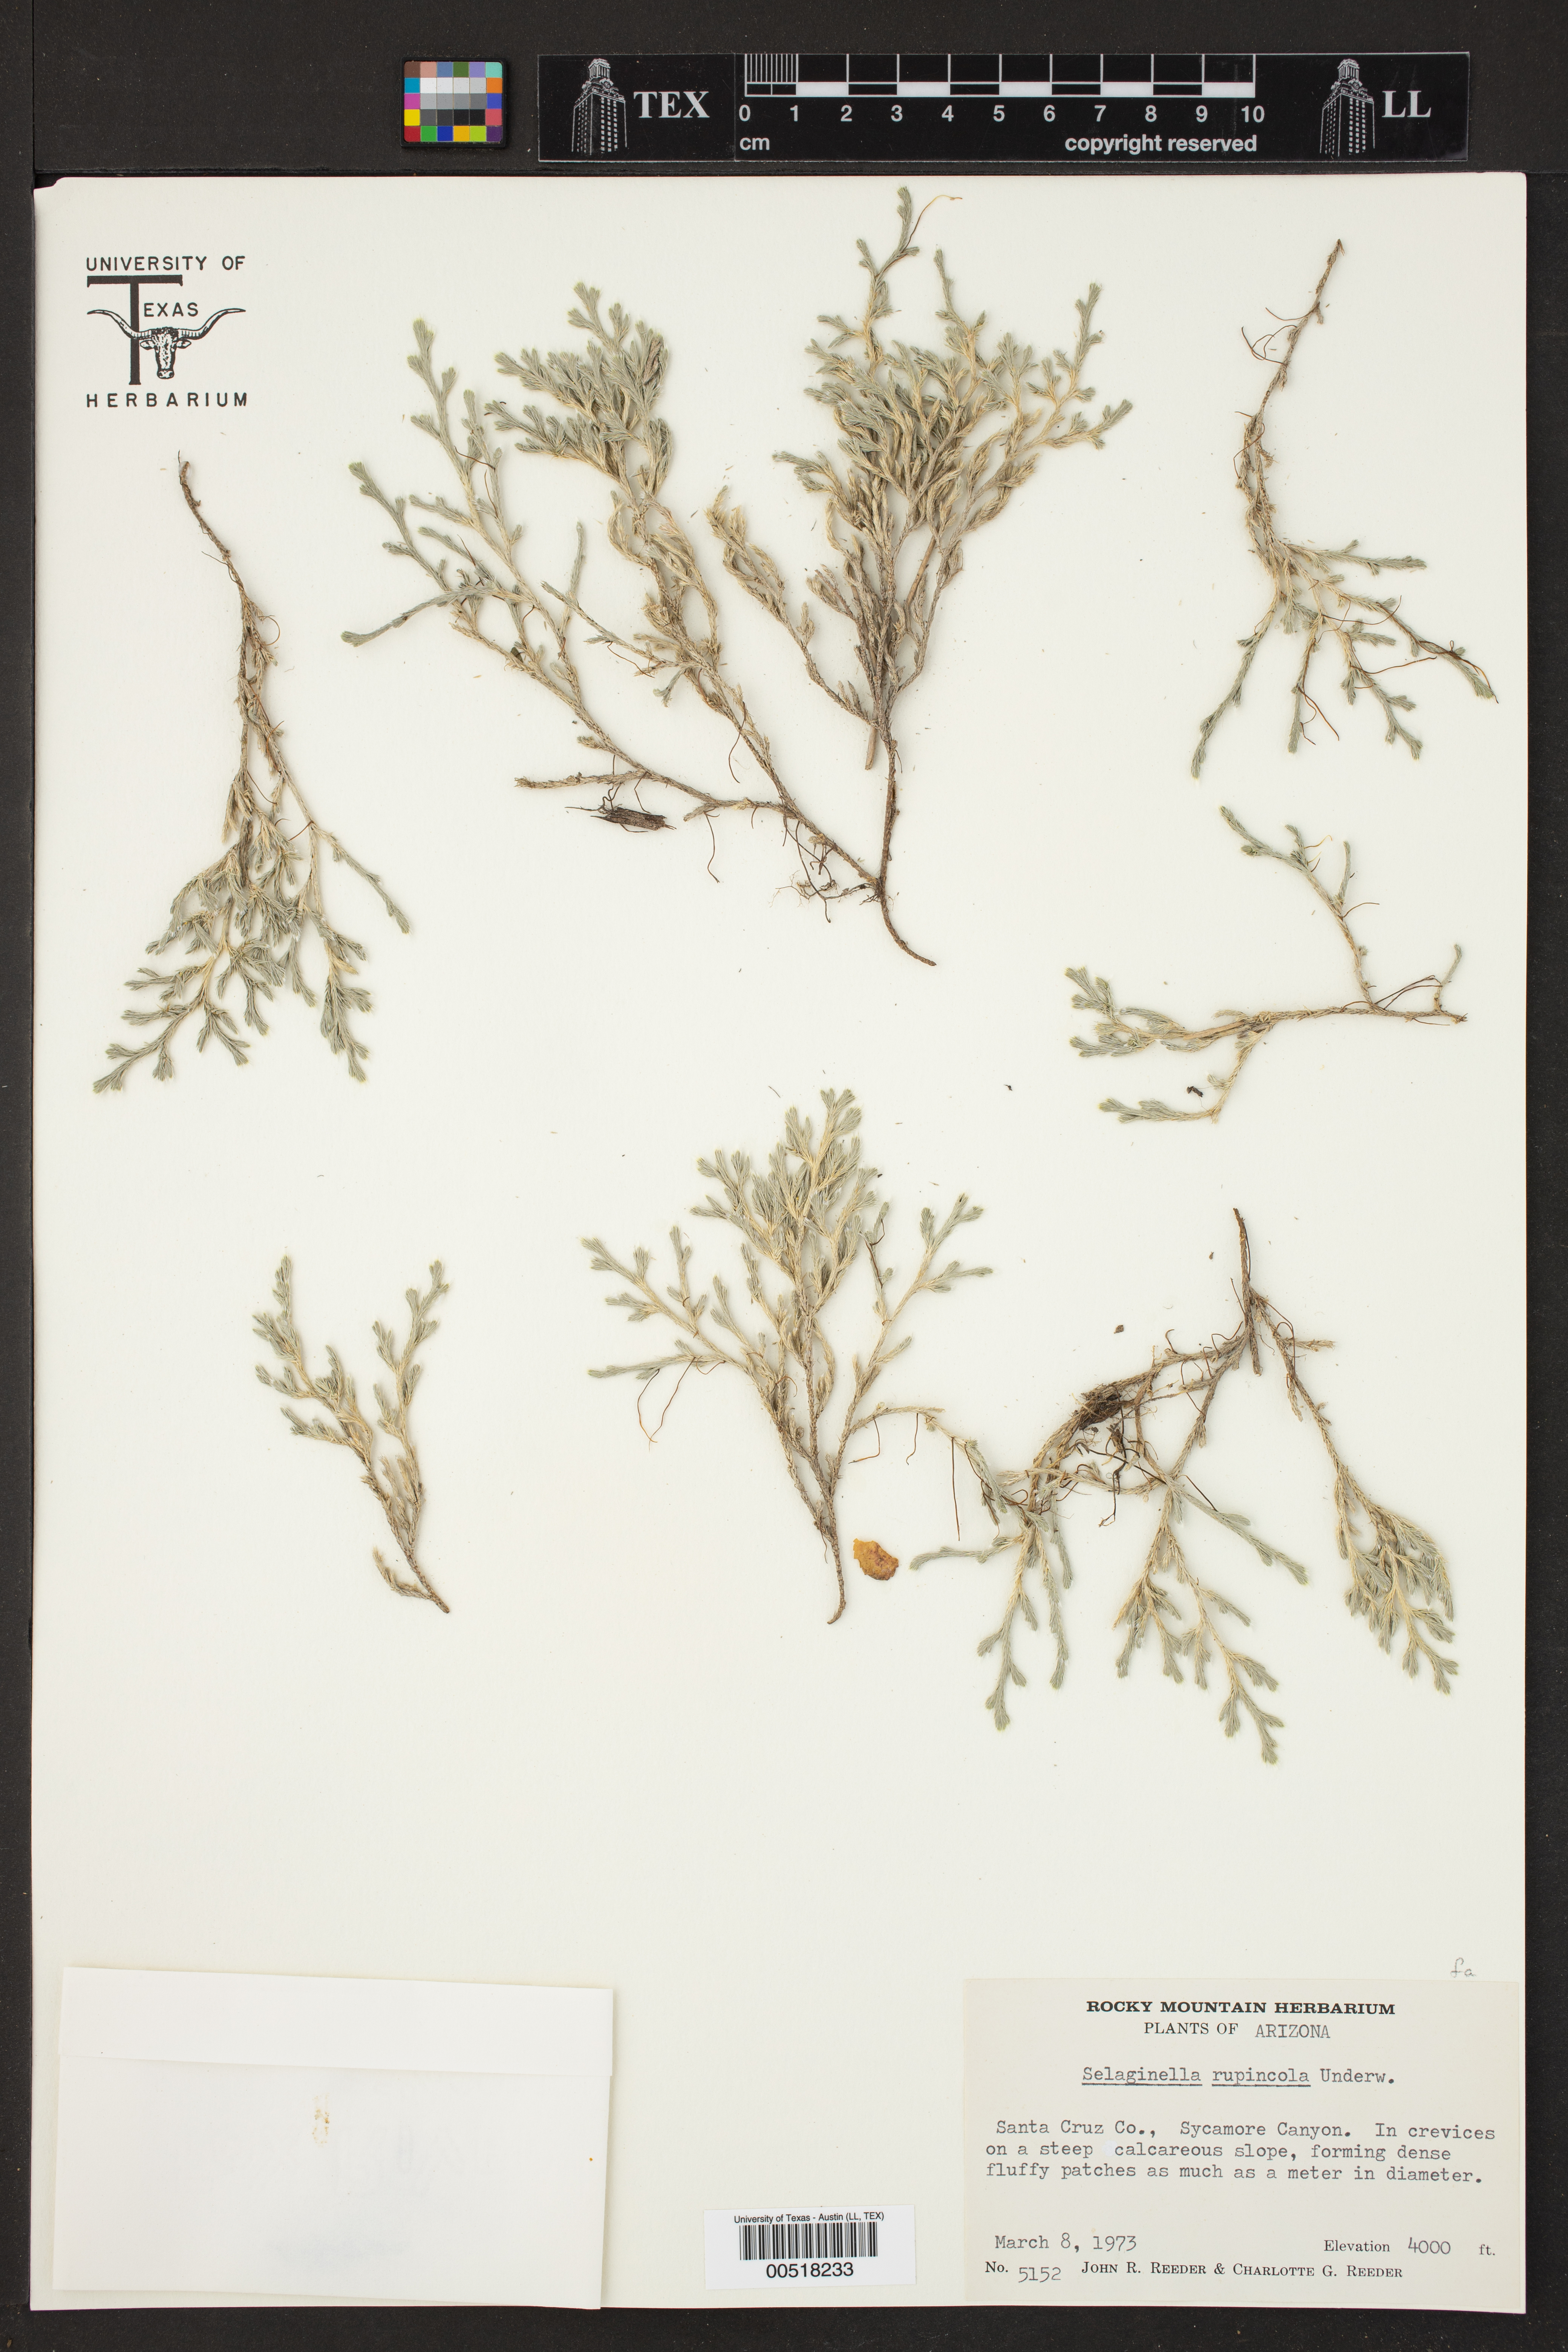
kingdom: Plantae
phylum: Tracheophyta
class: Lycopodiopsida
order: Selaginellales
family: Selaginellaceae
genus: Selaginella
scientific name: Selaginella rupincola
